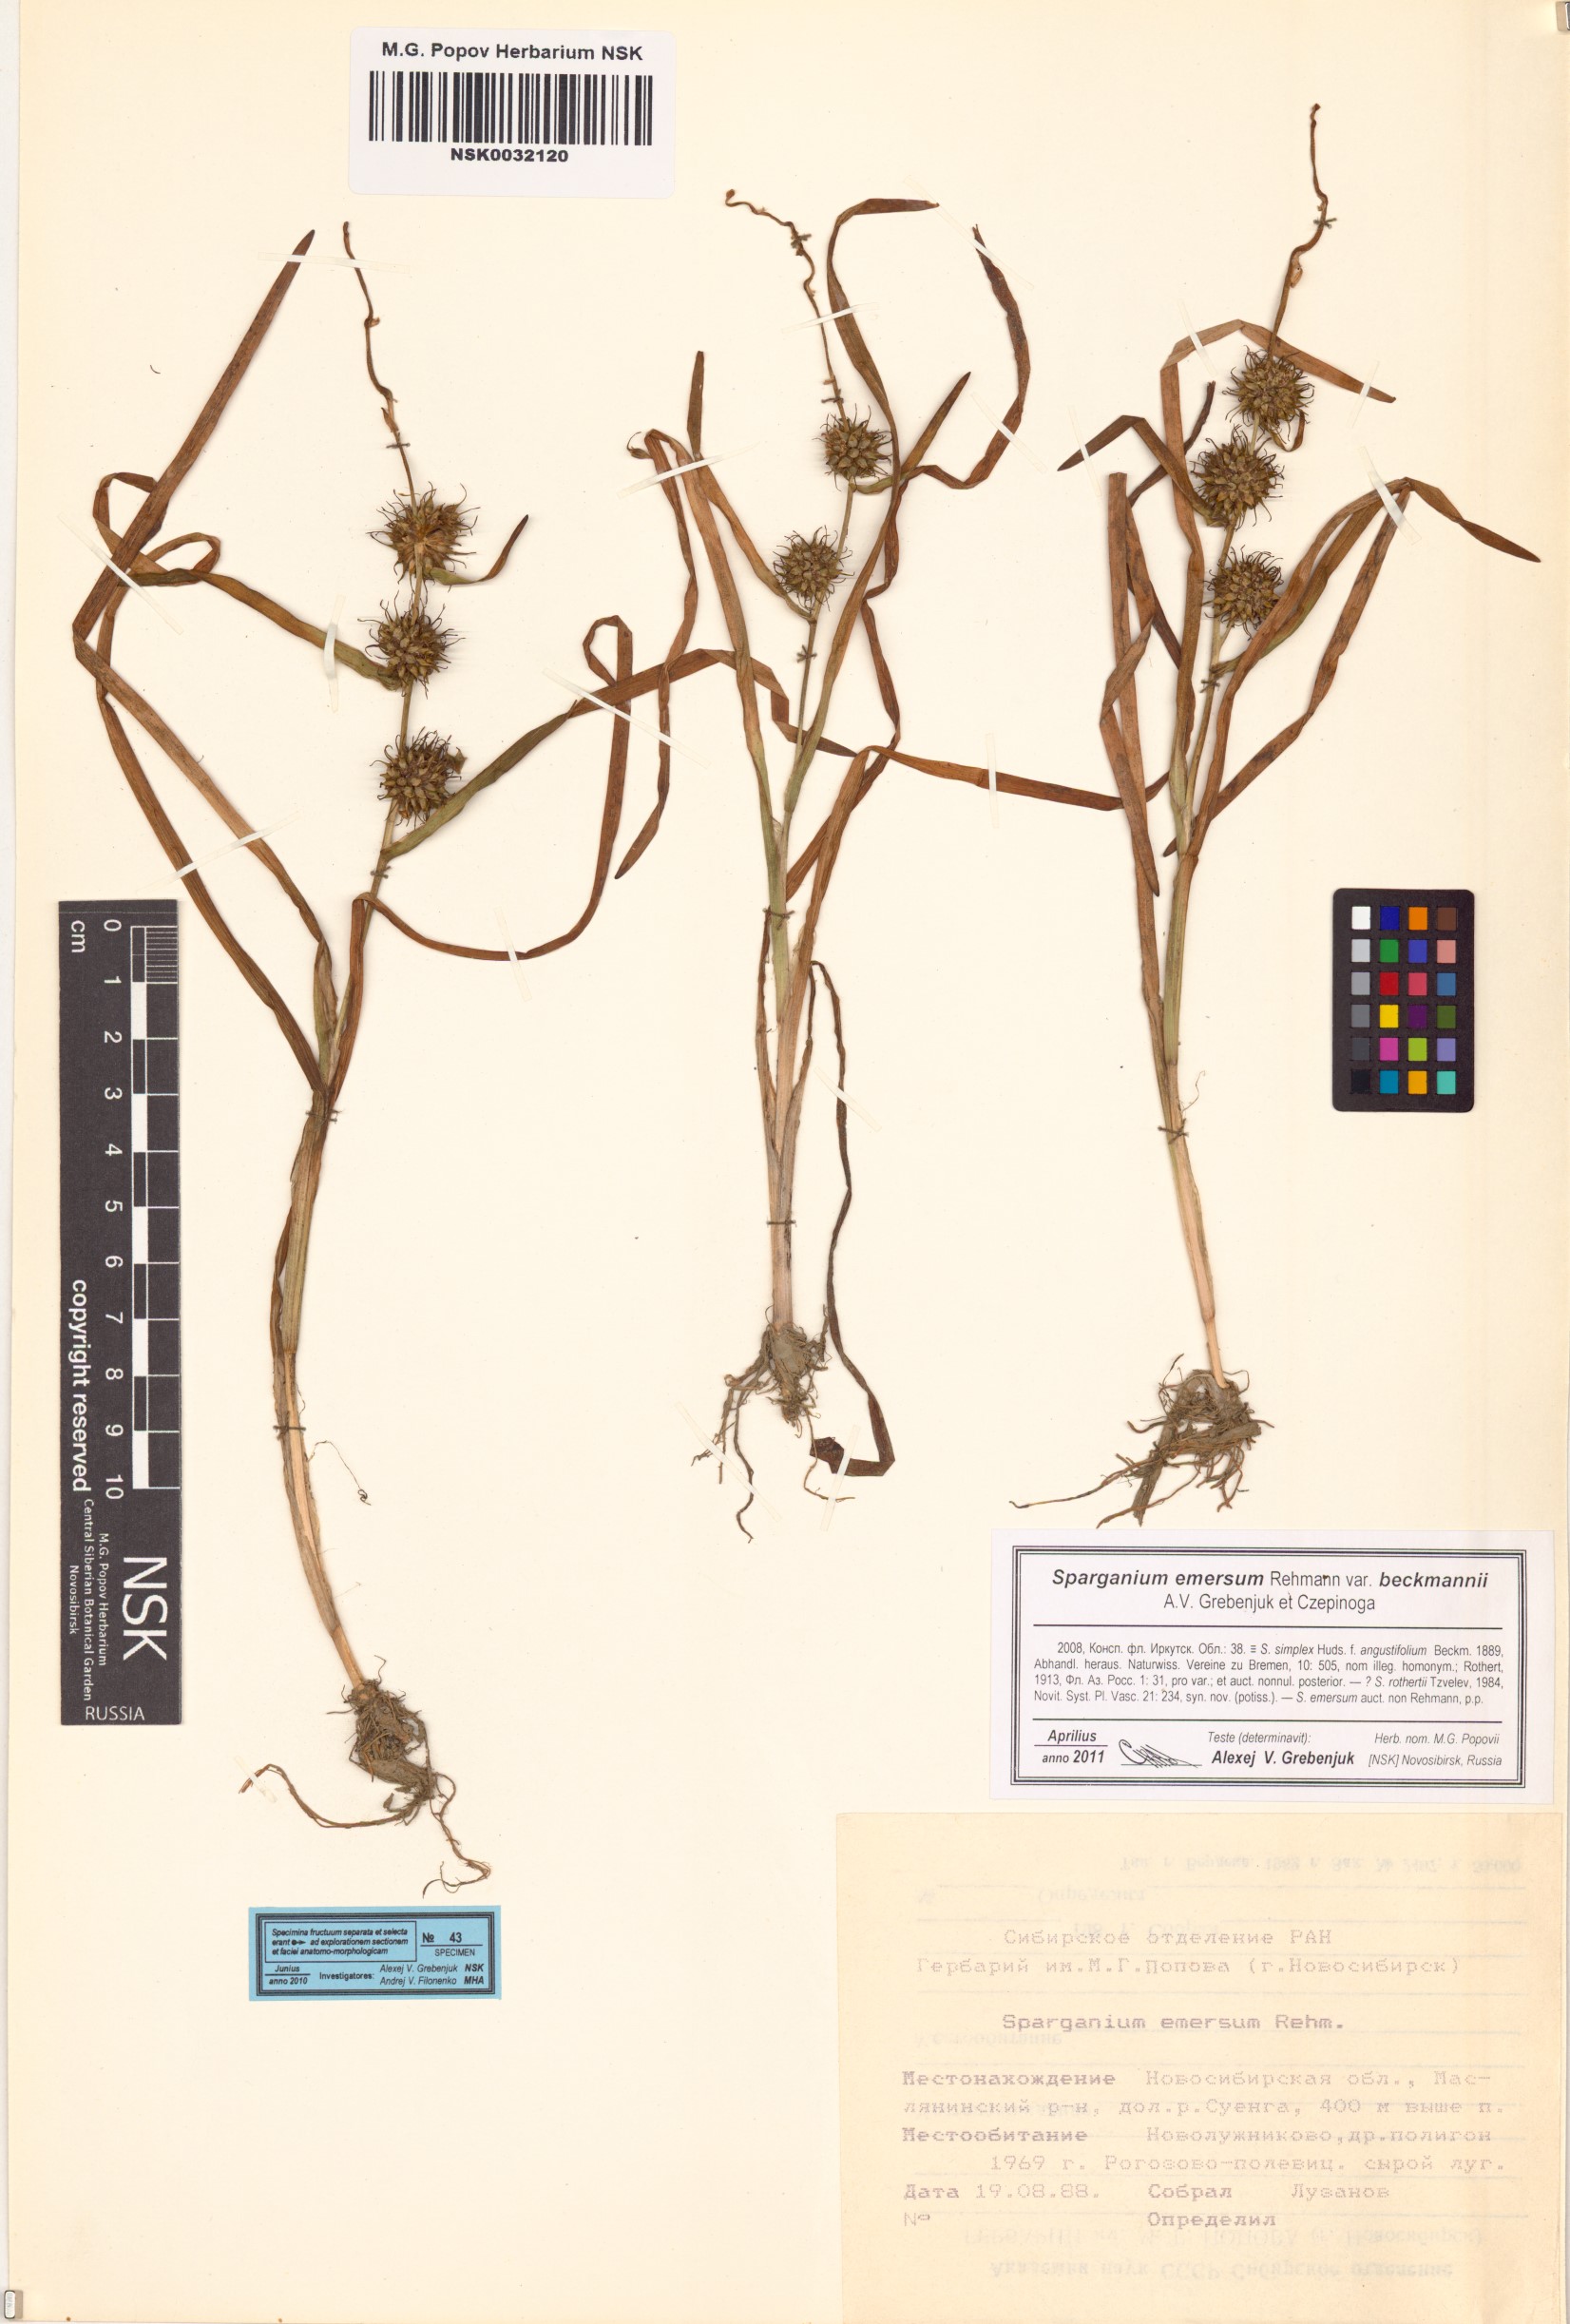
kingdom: Plantae
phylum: Tracheophyta
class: Liliopsida
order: Poales
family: Typhaceae
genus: Sparganium
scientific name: Sparganium emersum
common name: Unbranched bur-reed
